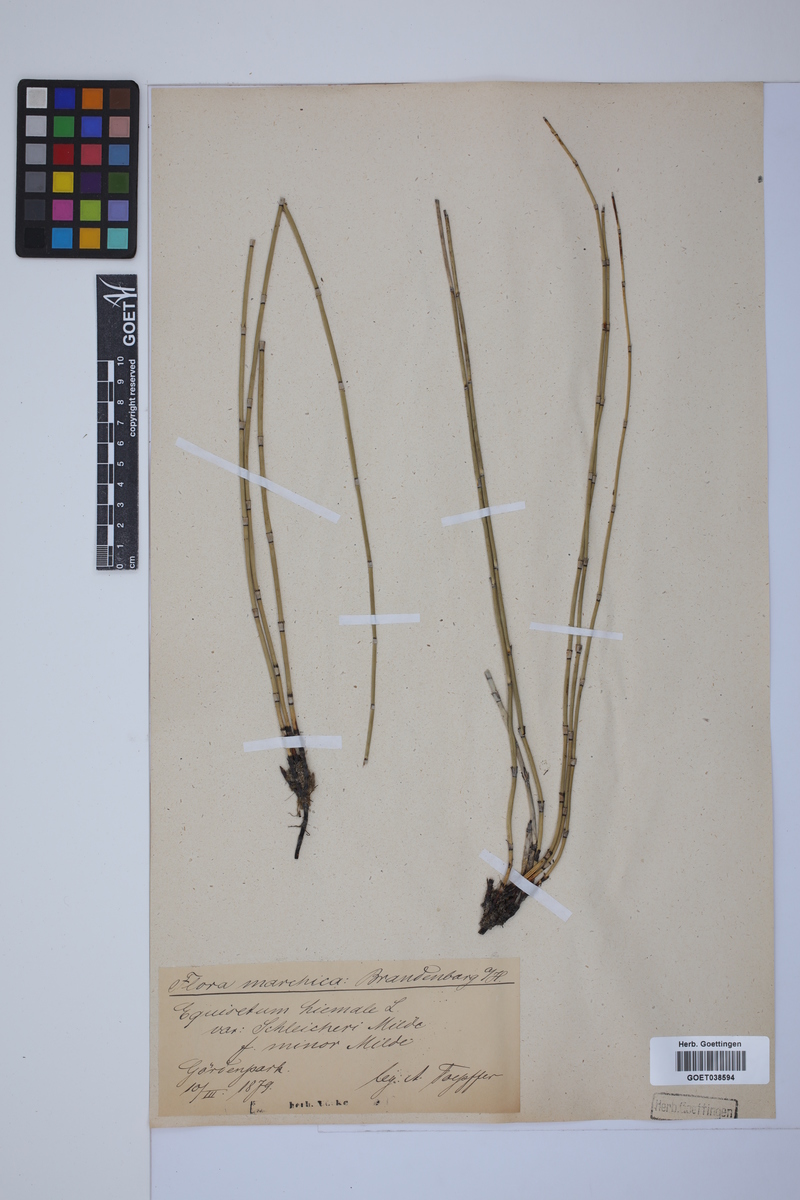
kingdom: Plantae
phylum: Tracheophyta
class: Polypodiopsida
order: Equisetales
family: Equisetaceae
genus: Equisetum
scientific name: Equisetum hyemale
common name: Rough horsetail
